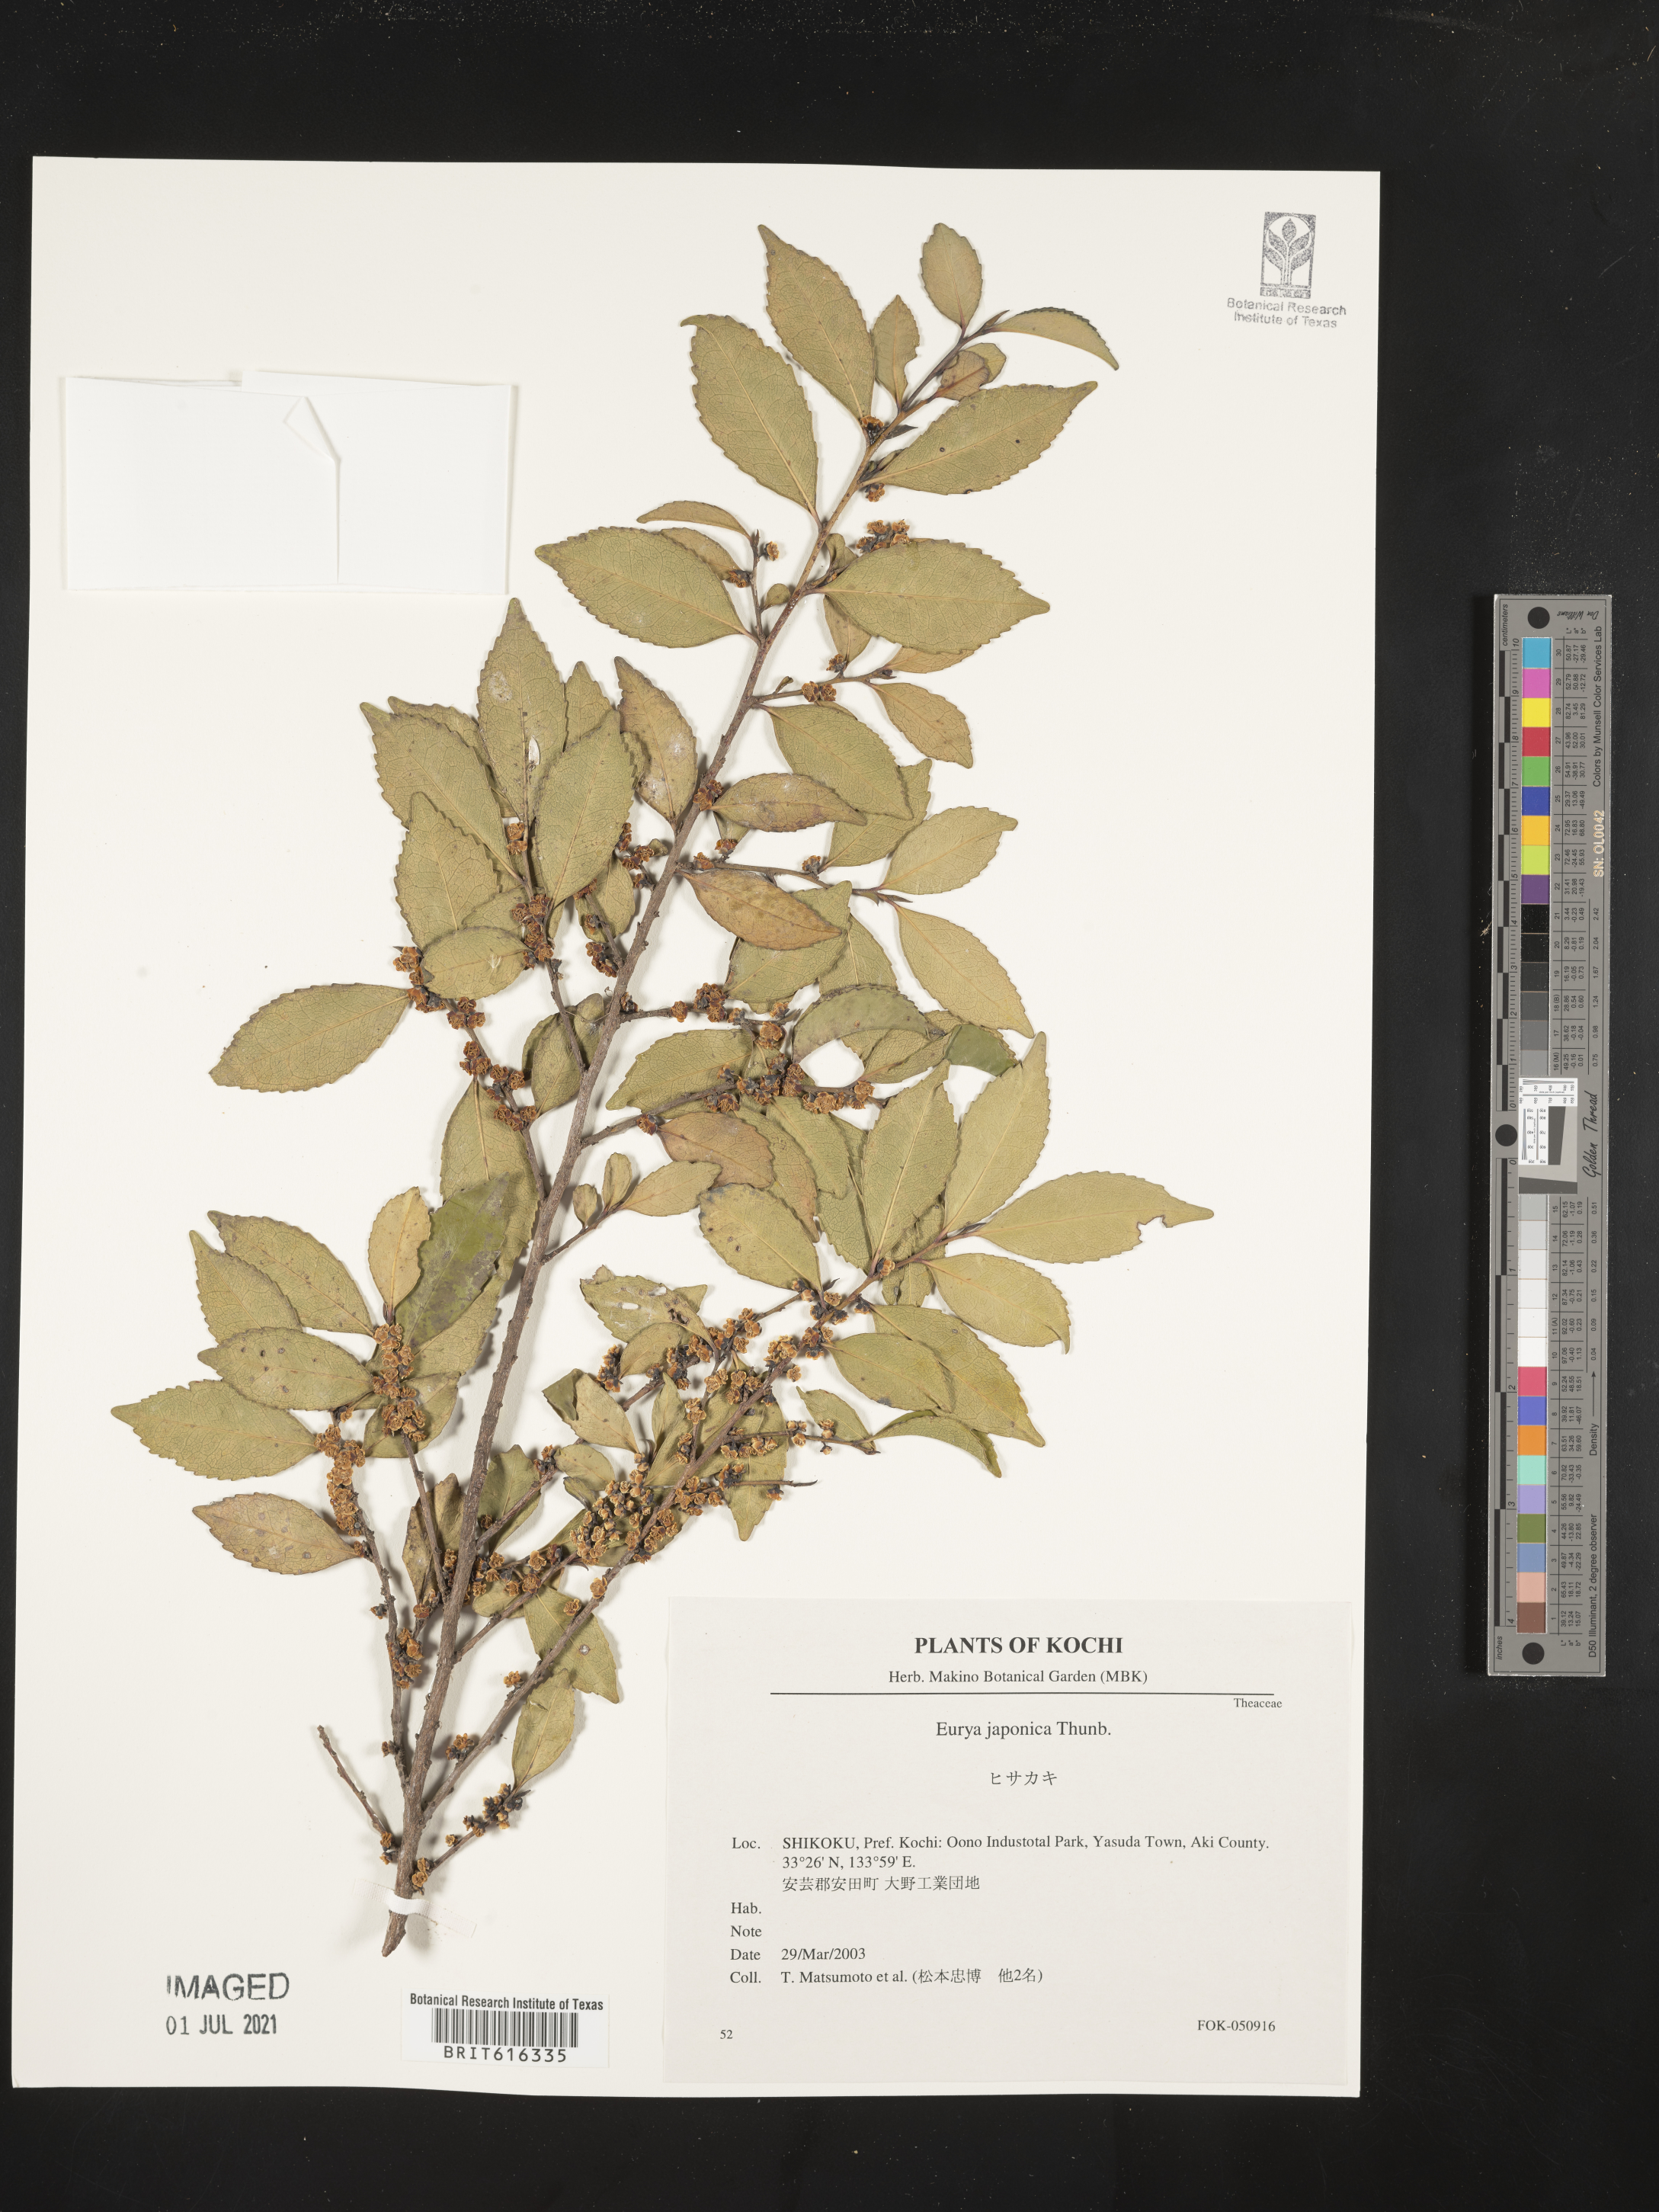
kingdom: Plantae
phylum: Tracheophyta
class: Magnoliopsida
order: Ericales
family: Pentaphylacaceae
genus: Eurya
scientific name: Eurya japonica
